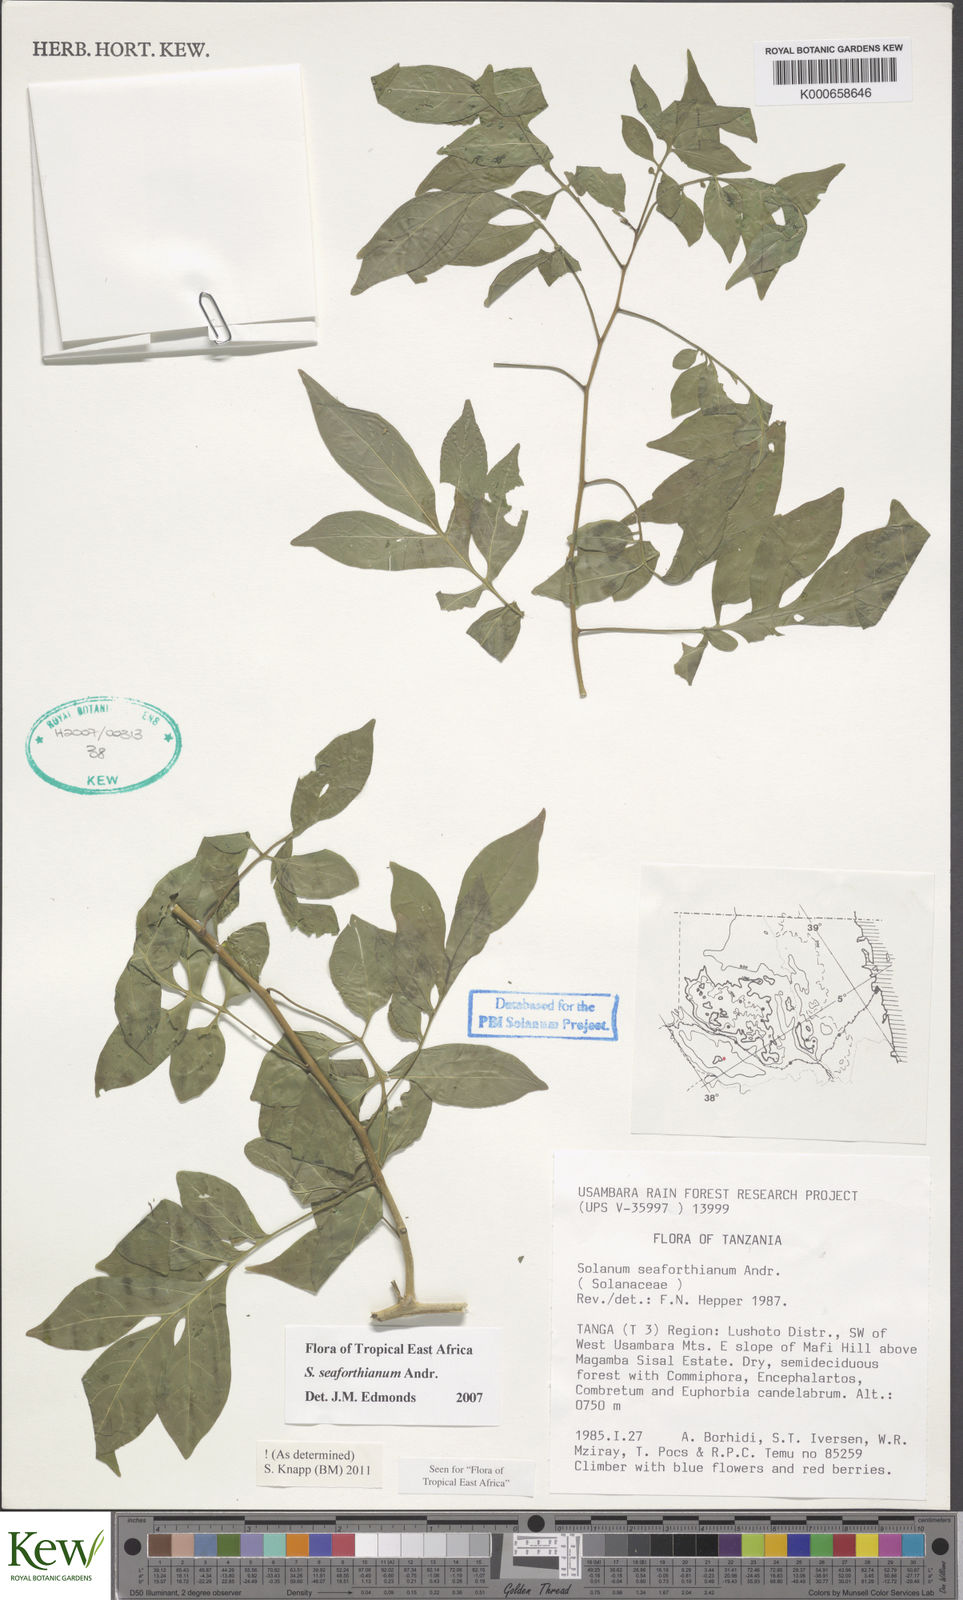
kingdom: Plantae
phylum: Tracheophyta
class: Magnoliopsida
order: Solanales
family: Solanaceae
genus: Solanum
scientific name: Solanum seaforthianum
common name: Brazilian nightshade
